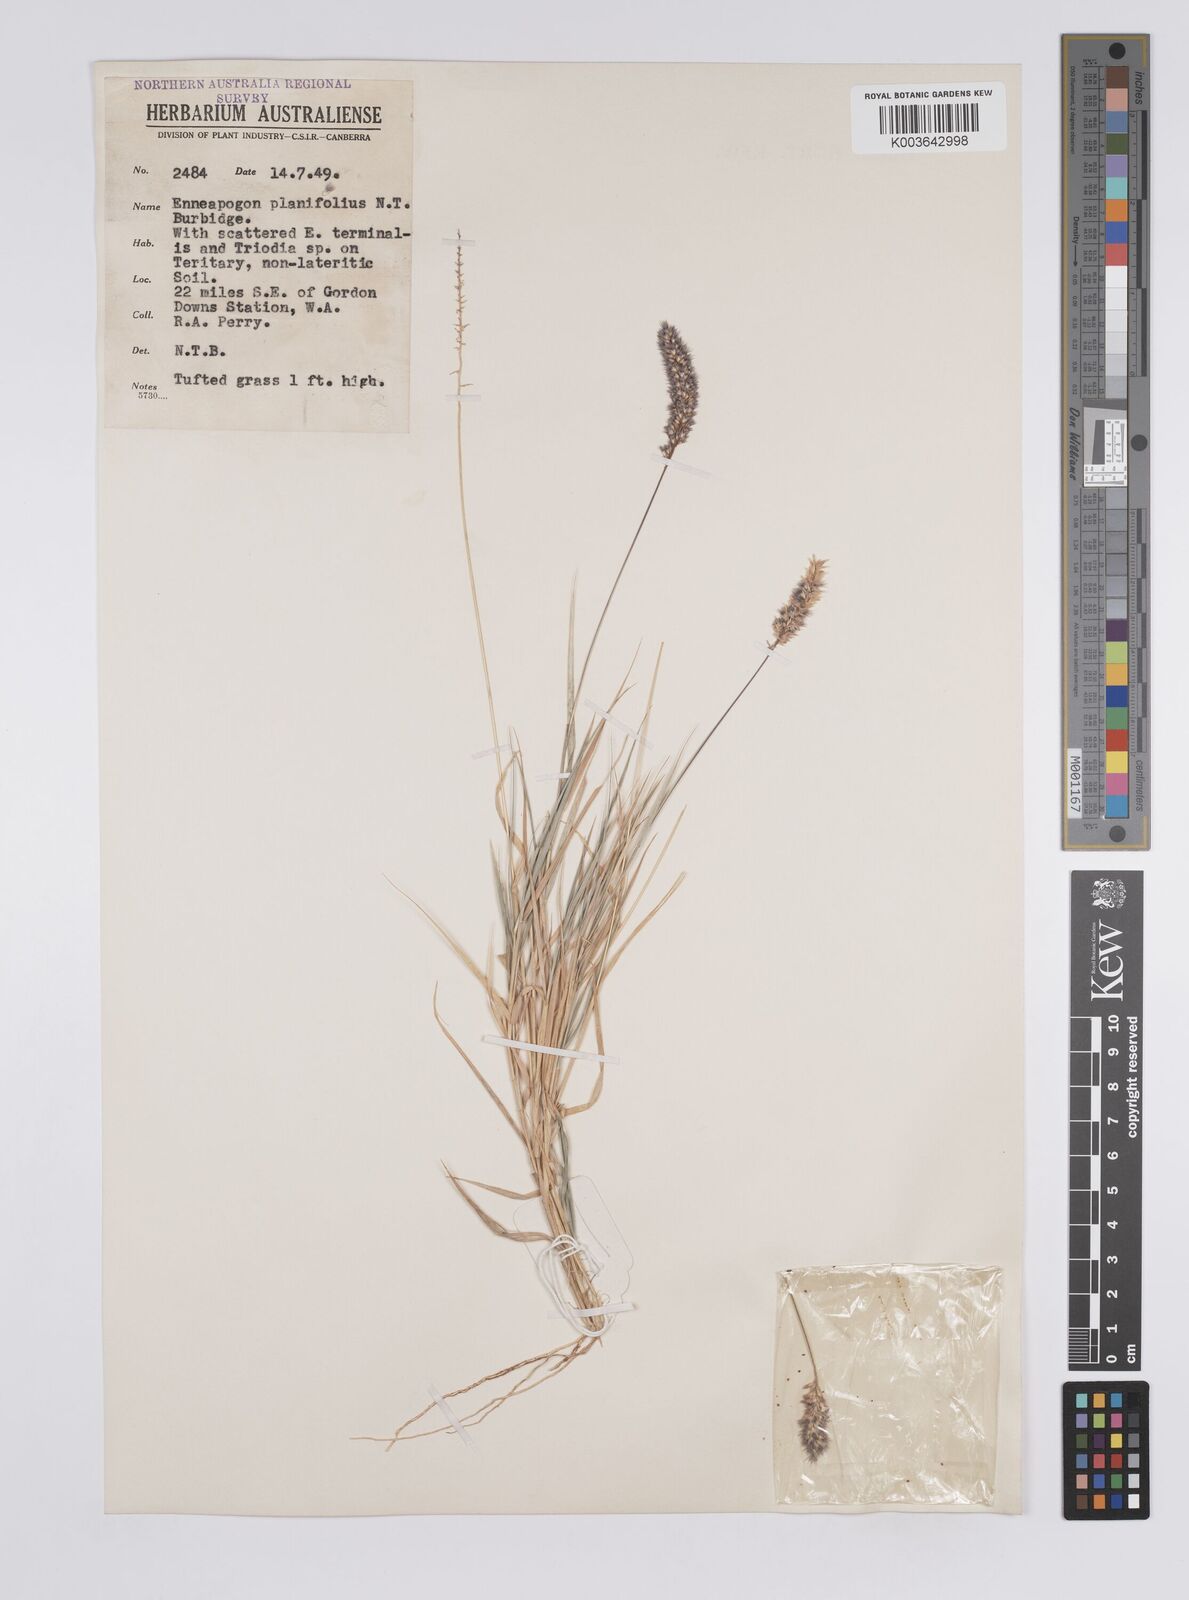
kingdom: Plantae
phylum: Tracheophyta
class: Liliopsida
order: Poales
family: Poaceae
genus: Enneapogon
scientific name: Enneapogon purpurascens
